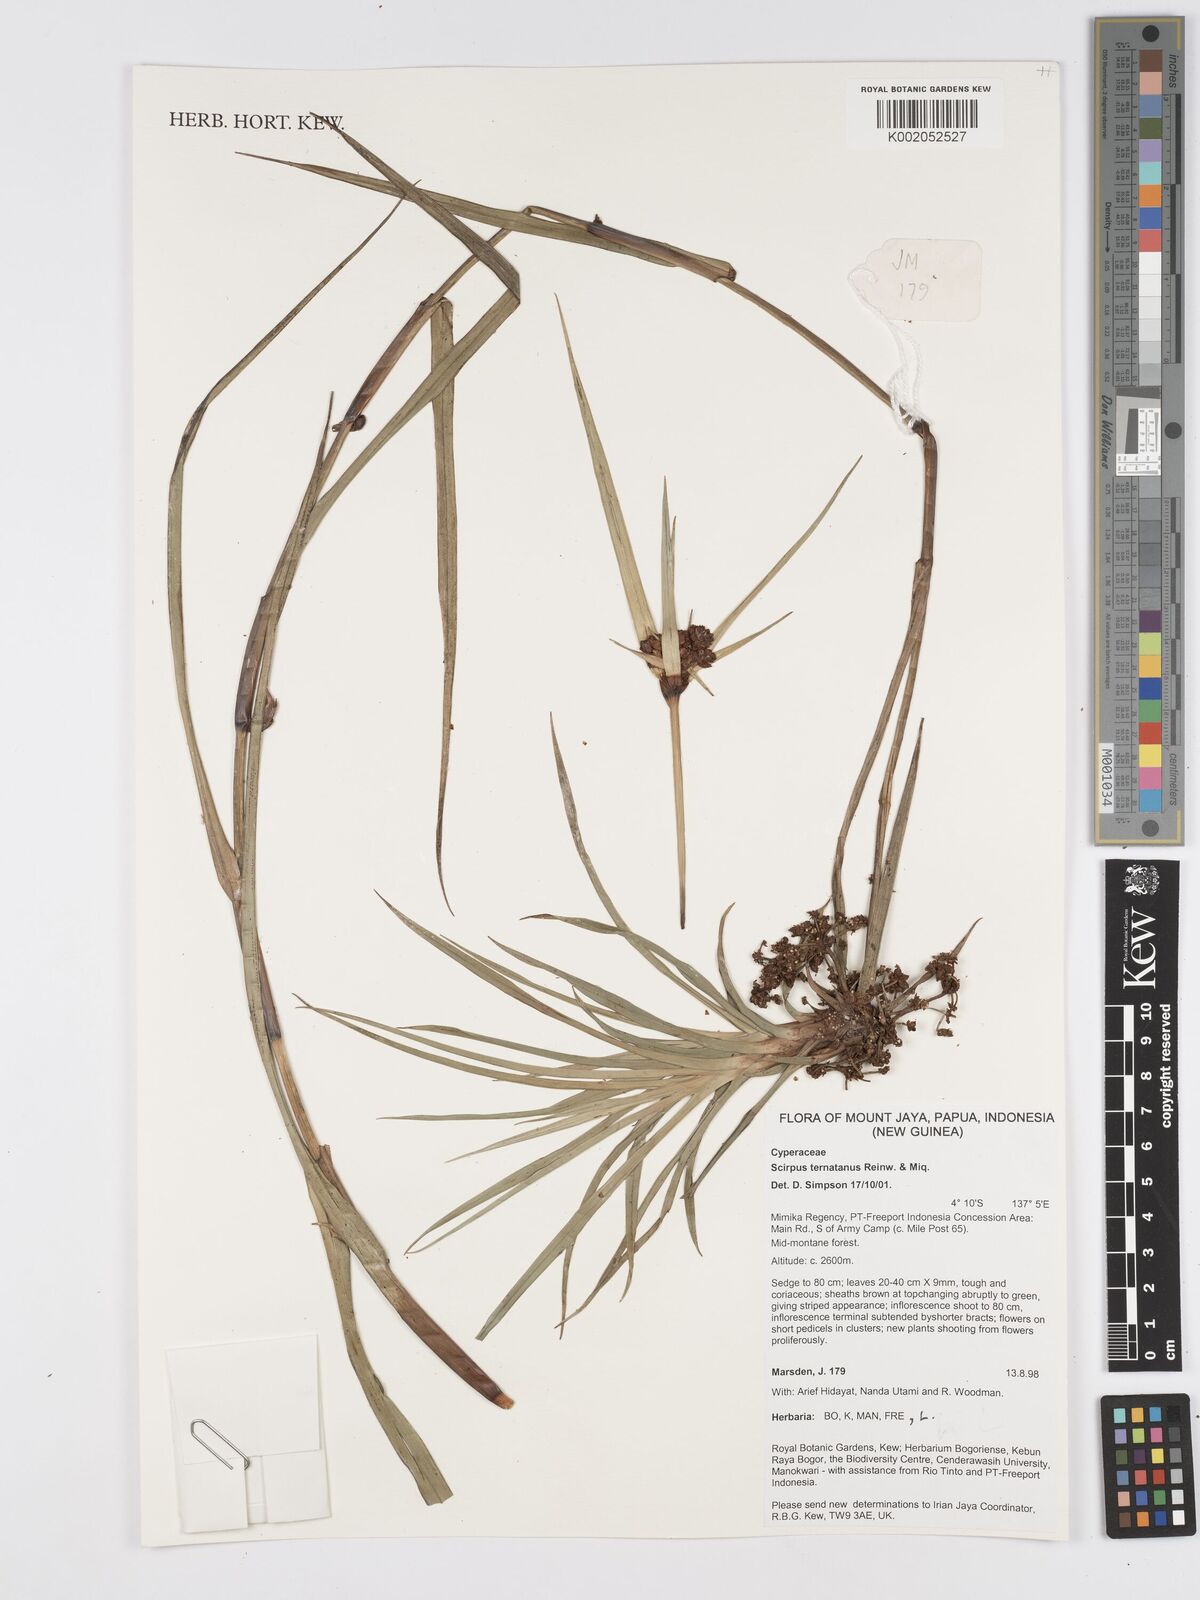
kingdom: Plantae
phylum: Tracheophyta
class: Liliopsida
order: Poales
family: Cyperaceae
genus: Scirpus
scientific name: Scirpus ternatanus
